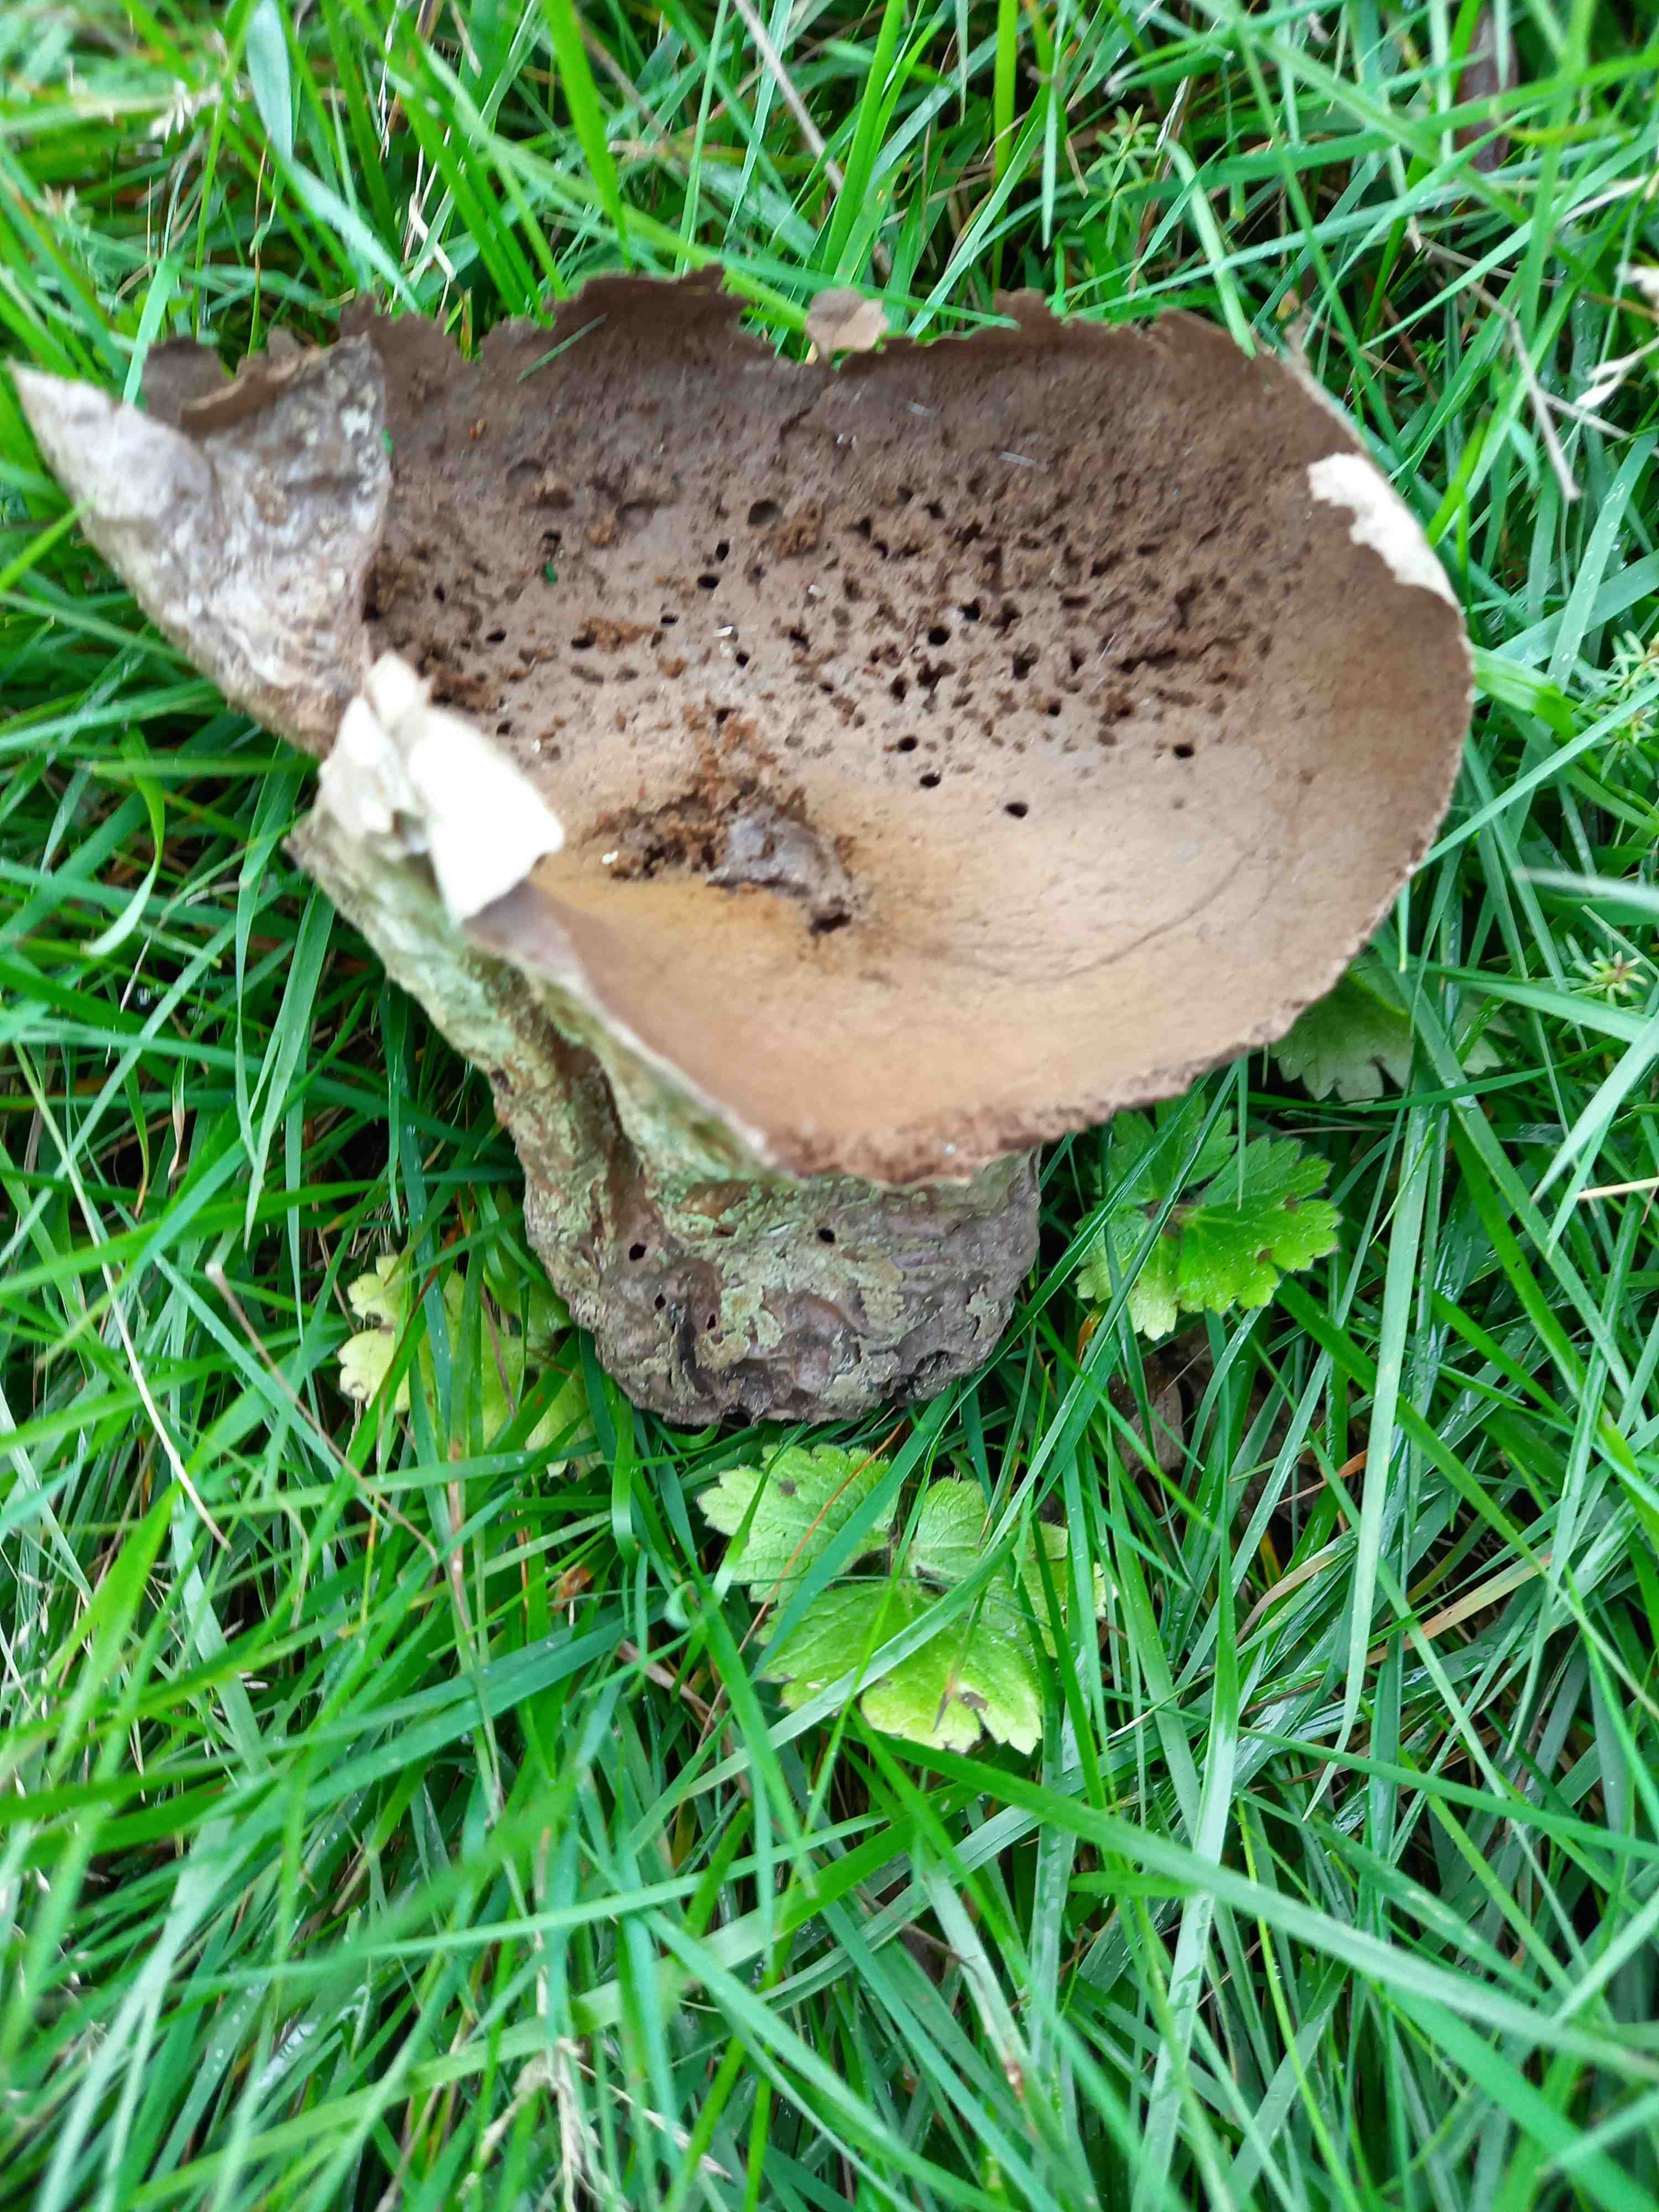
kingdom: Fungi
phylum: Basidiomycota
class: Agaricomycetes
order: Agaricales
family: Lycoperdaceae
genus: Bovistella
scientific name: Bovistella utriformis
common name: skællet støvbold
